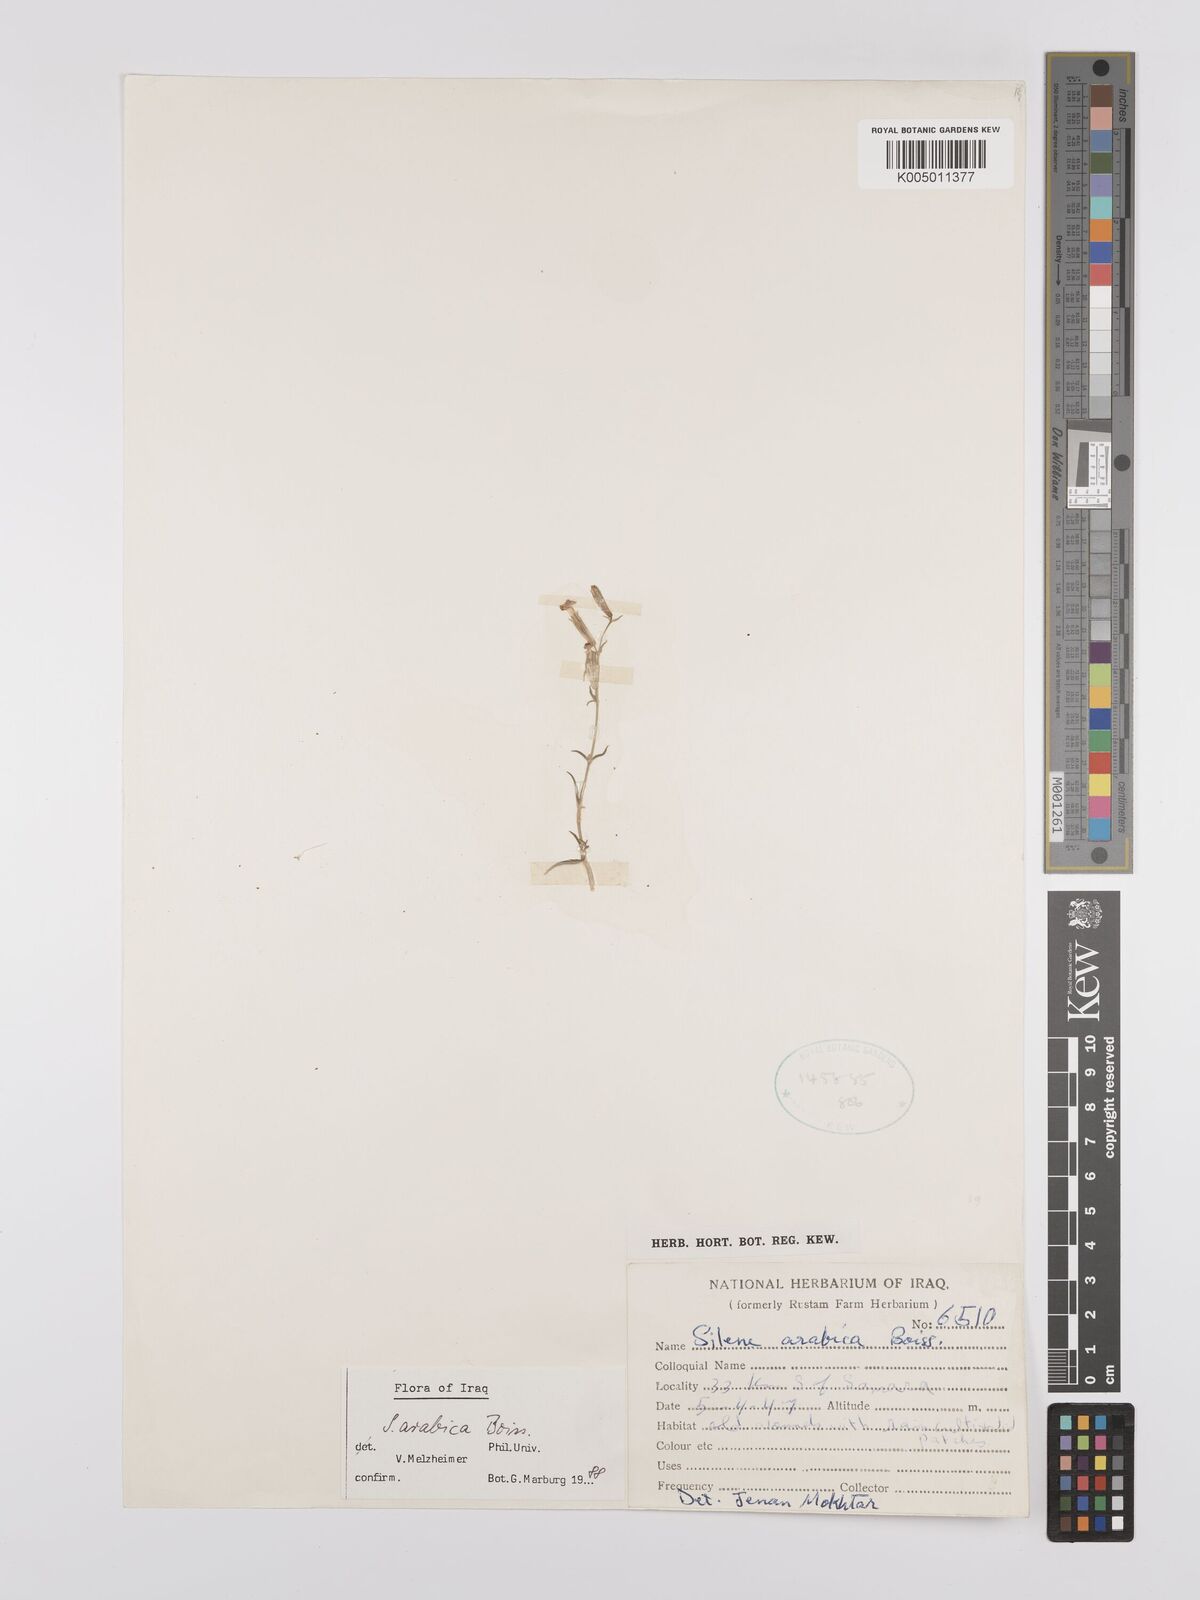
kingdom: Plantae
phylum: Tracheophyta
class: Magnoliopsida
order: Caryophyllales
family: Caryophyllaceae
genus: Silene
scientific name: Silene arabica
